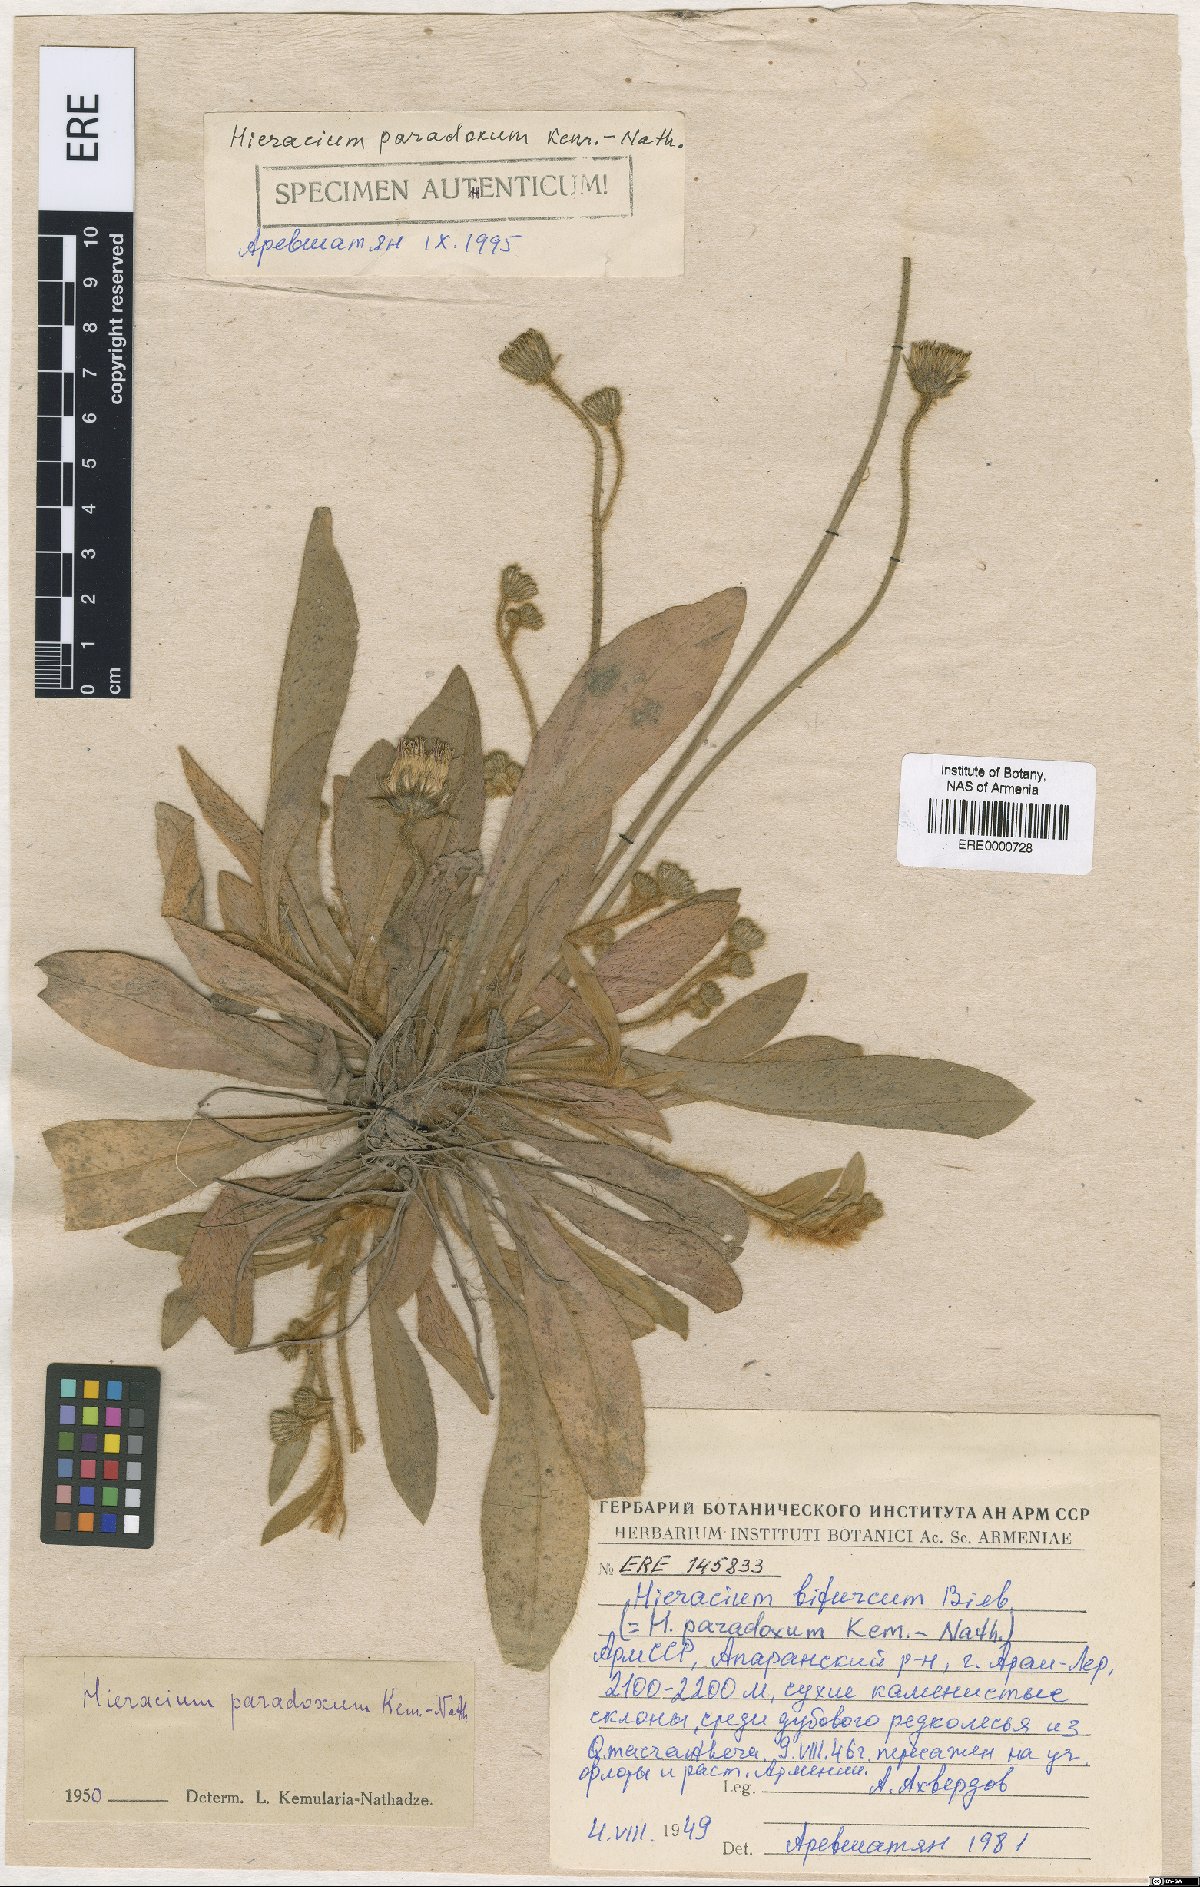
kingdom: Plantae
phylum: Tracheophyta
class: Magnoliopsida
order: Asterales
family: Asteraceae
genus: Pilosella
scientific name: Pilosella officinarum
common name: Mouse-ear hawkweed
